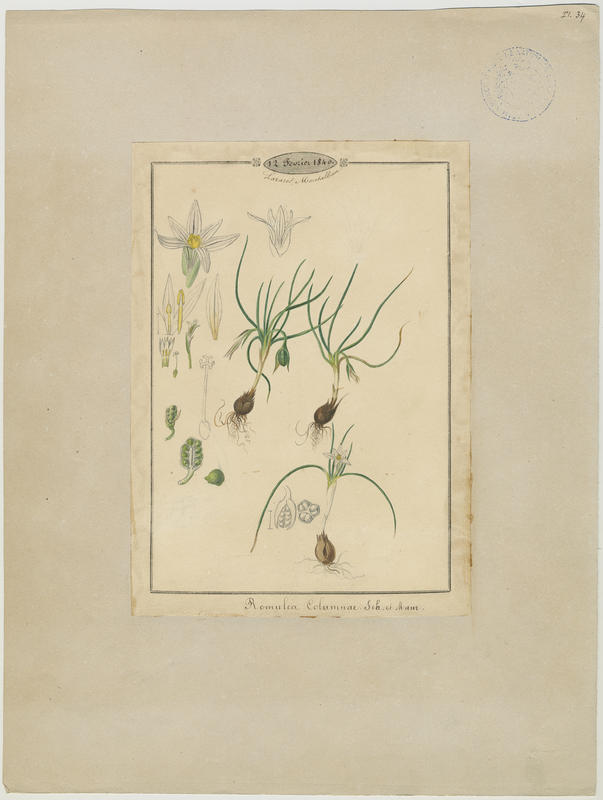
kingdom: Plantae
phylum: Tracheophyta
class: Liliopsida
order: Asparagales
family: Iridaceae
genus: Romulea
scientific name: Romulea columnae
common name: Sand-crocus
